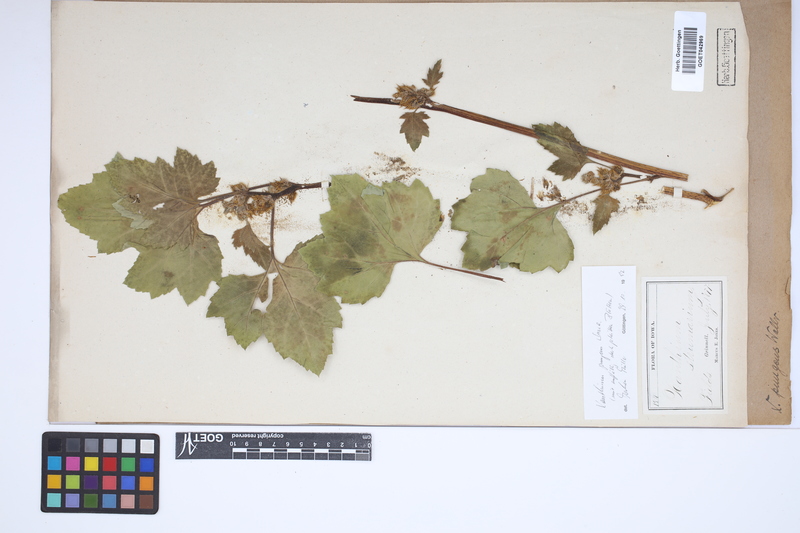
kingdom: Plantae
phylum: Tracheophyta
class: Magnoliopsida
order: Asterales
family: Asteraceae
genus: Xanthium
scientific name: Xanthium occidentale
